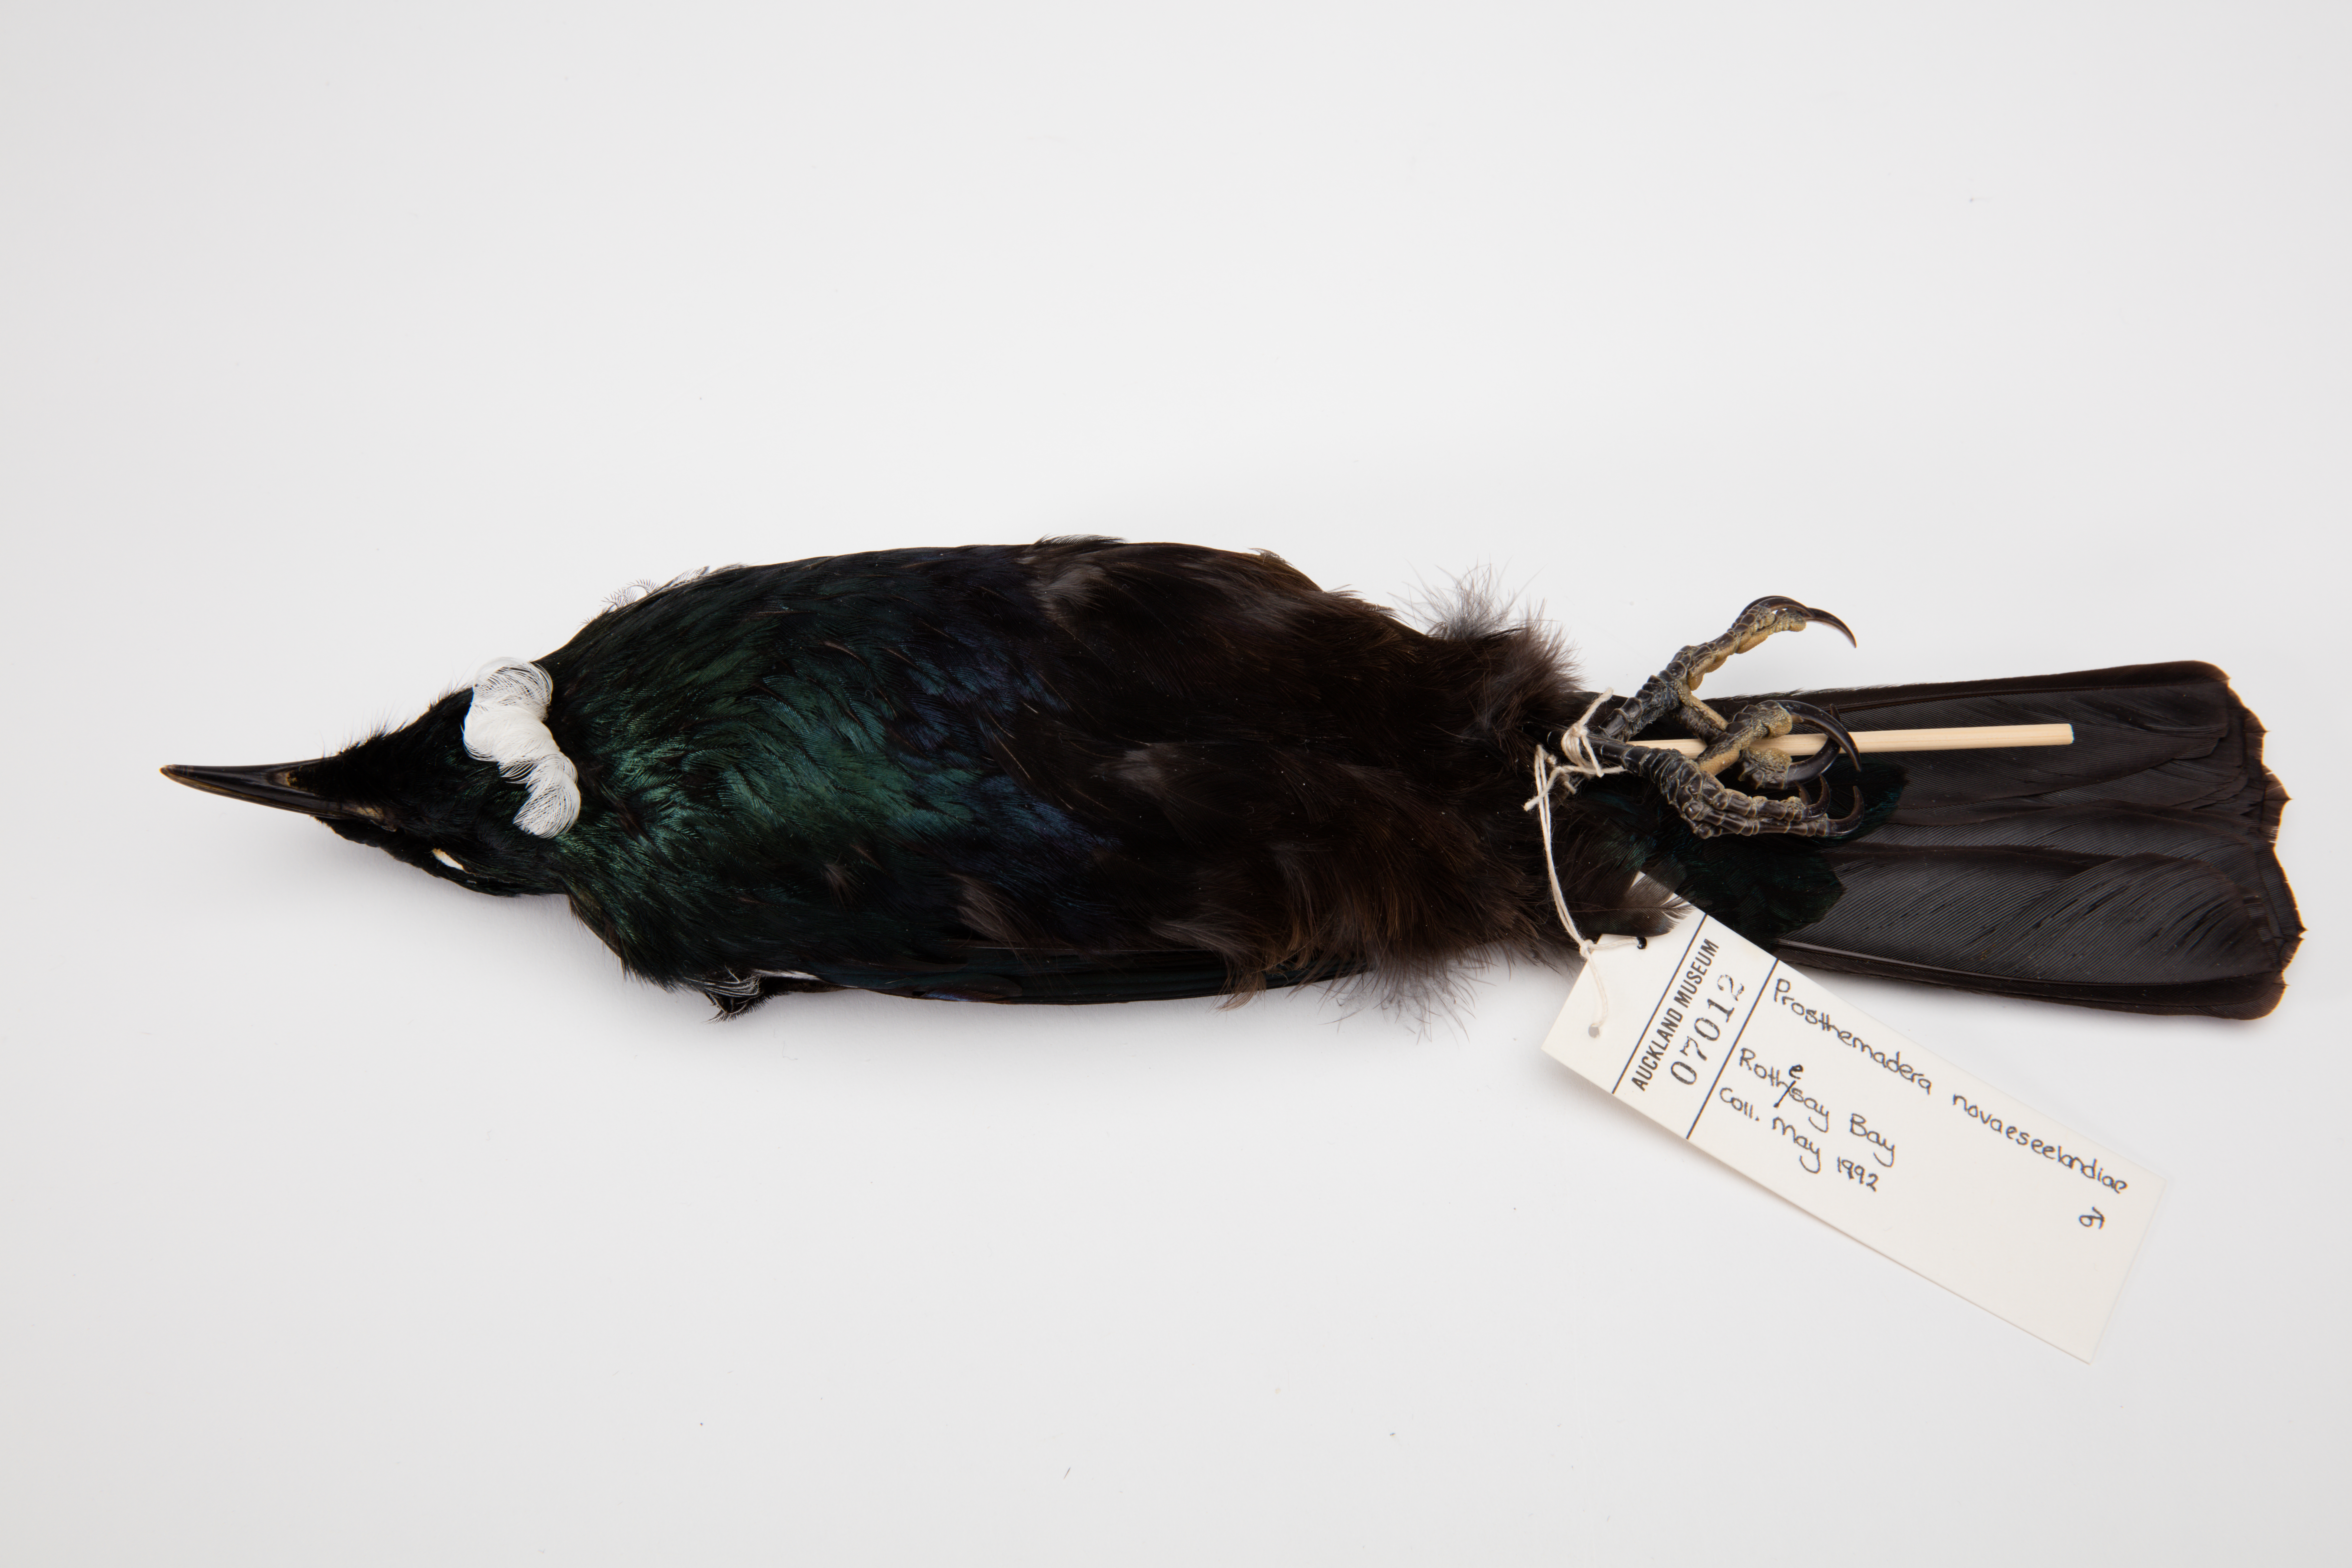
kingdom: Animalia
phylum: Chordata
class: Aves
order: Passeriformes
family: Meliphagidae
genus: Prosthemadera
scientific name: Prosthemadera novaeseelandiae
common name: Tui
